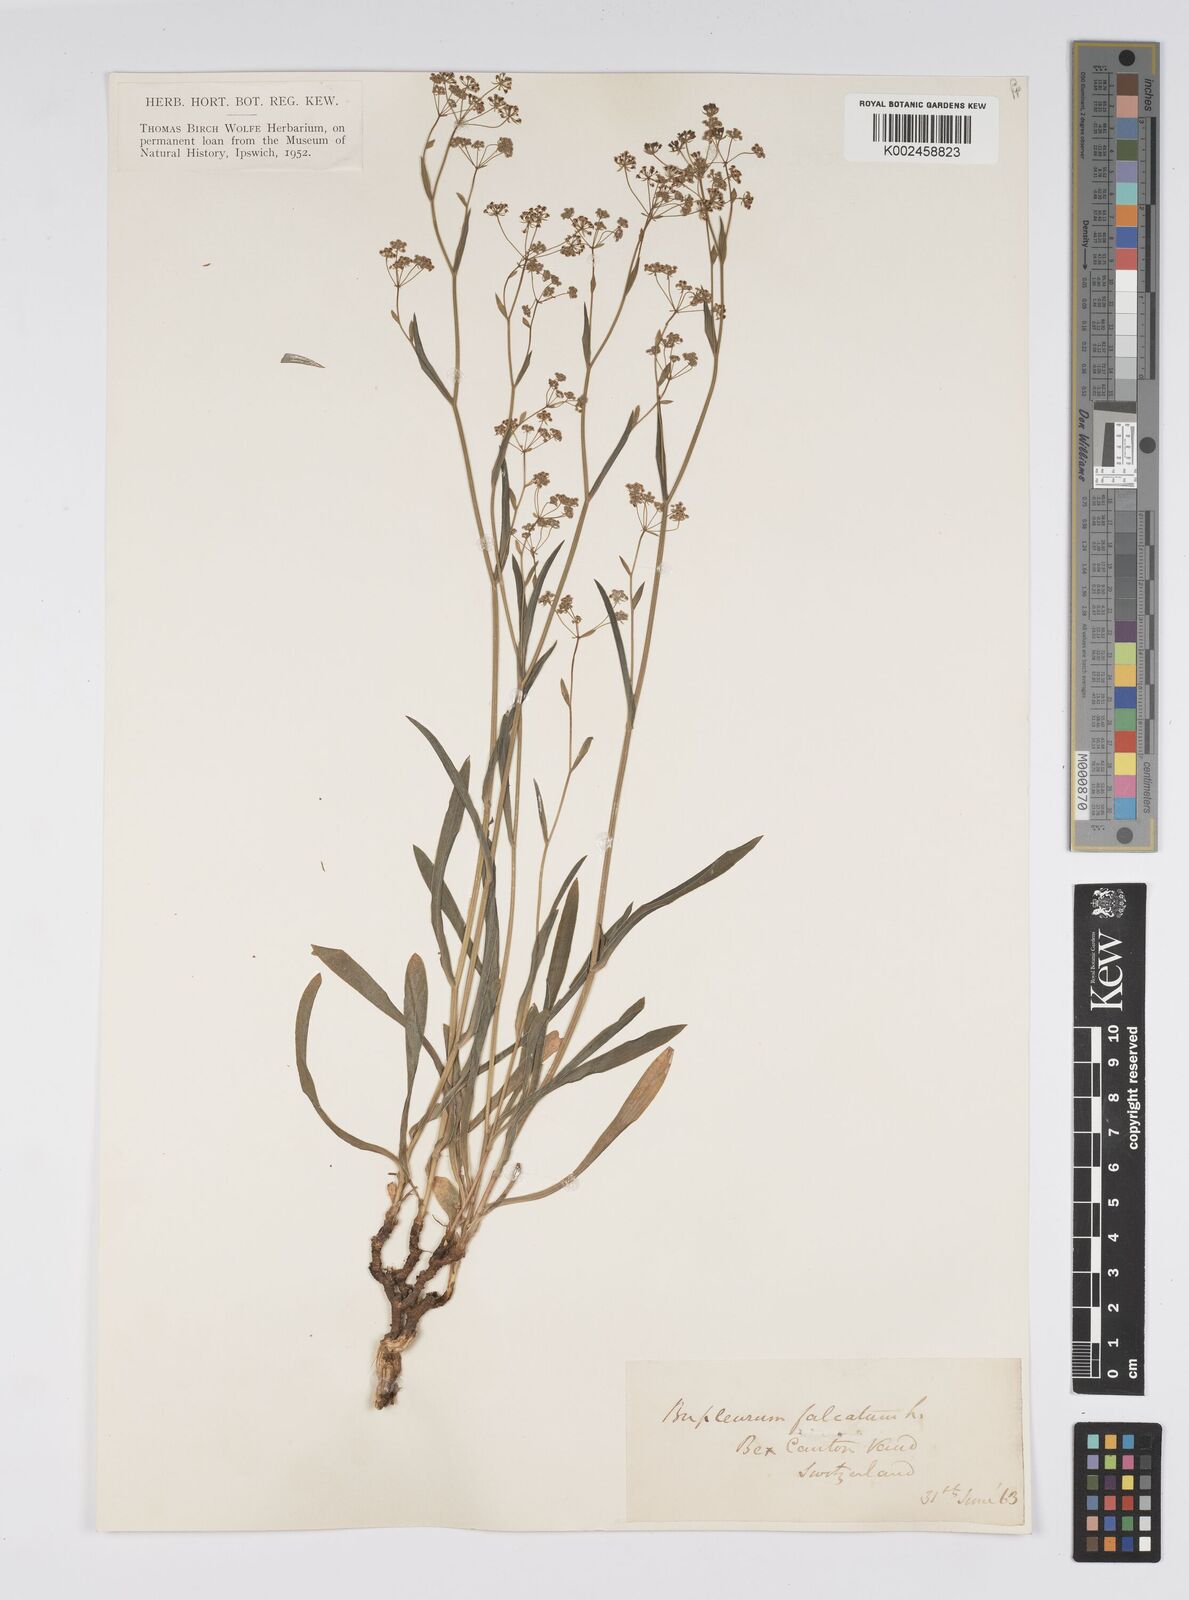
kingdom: Plantae
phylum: Tracheophyta
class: Magnoliopsida
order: Apiales
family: Apiaceae
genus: Bupleurum
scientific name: Bupleurum falcatum
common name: Sickle-leaved hare's-ear
